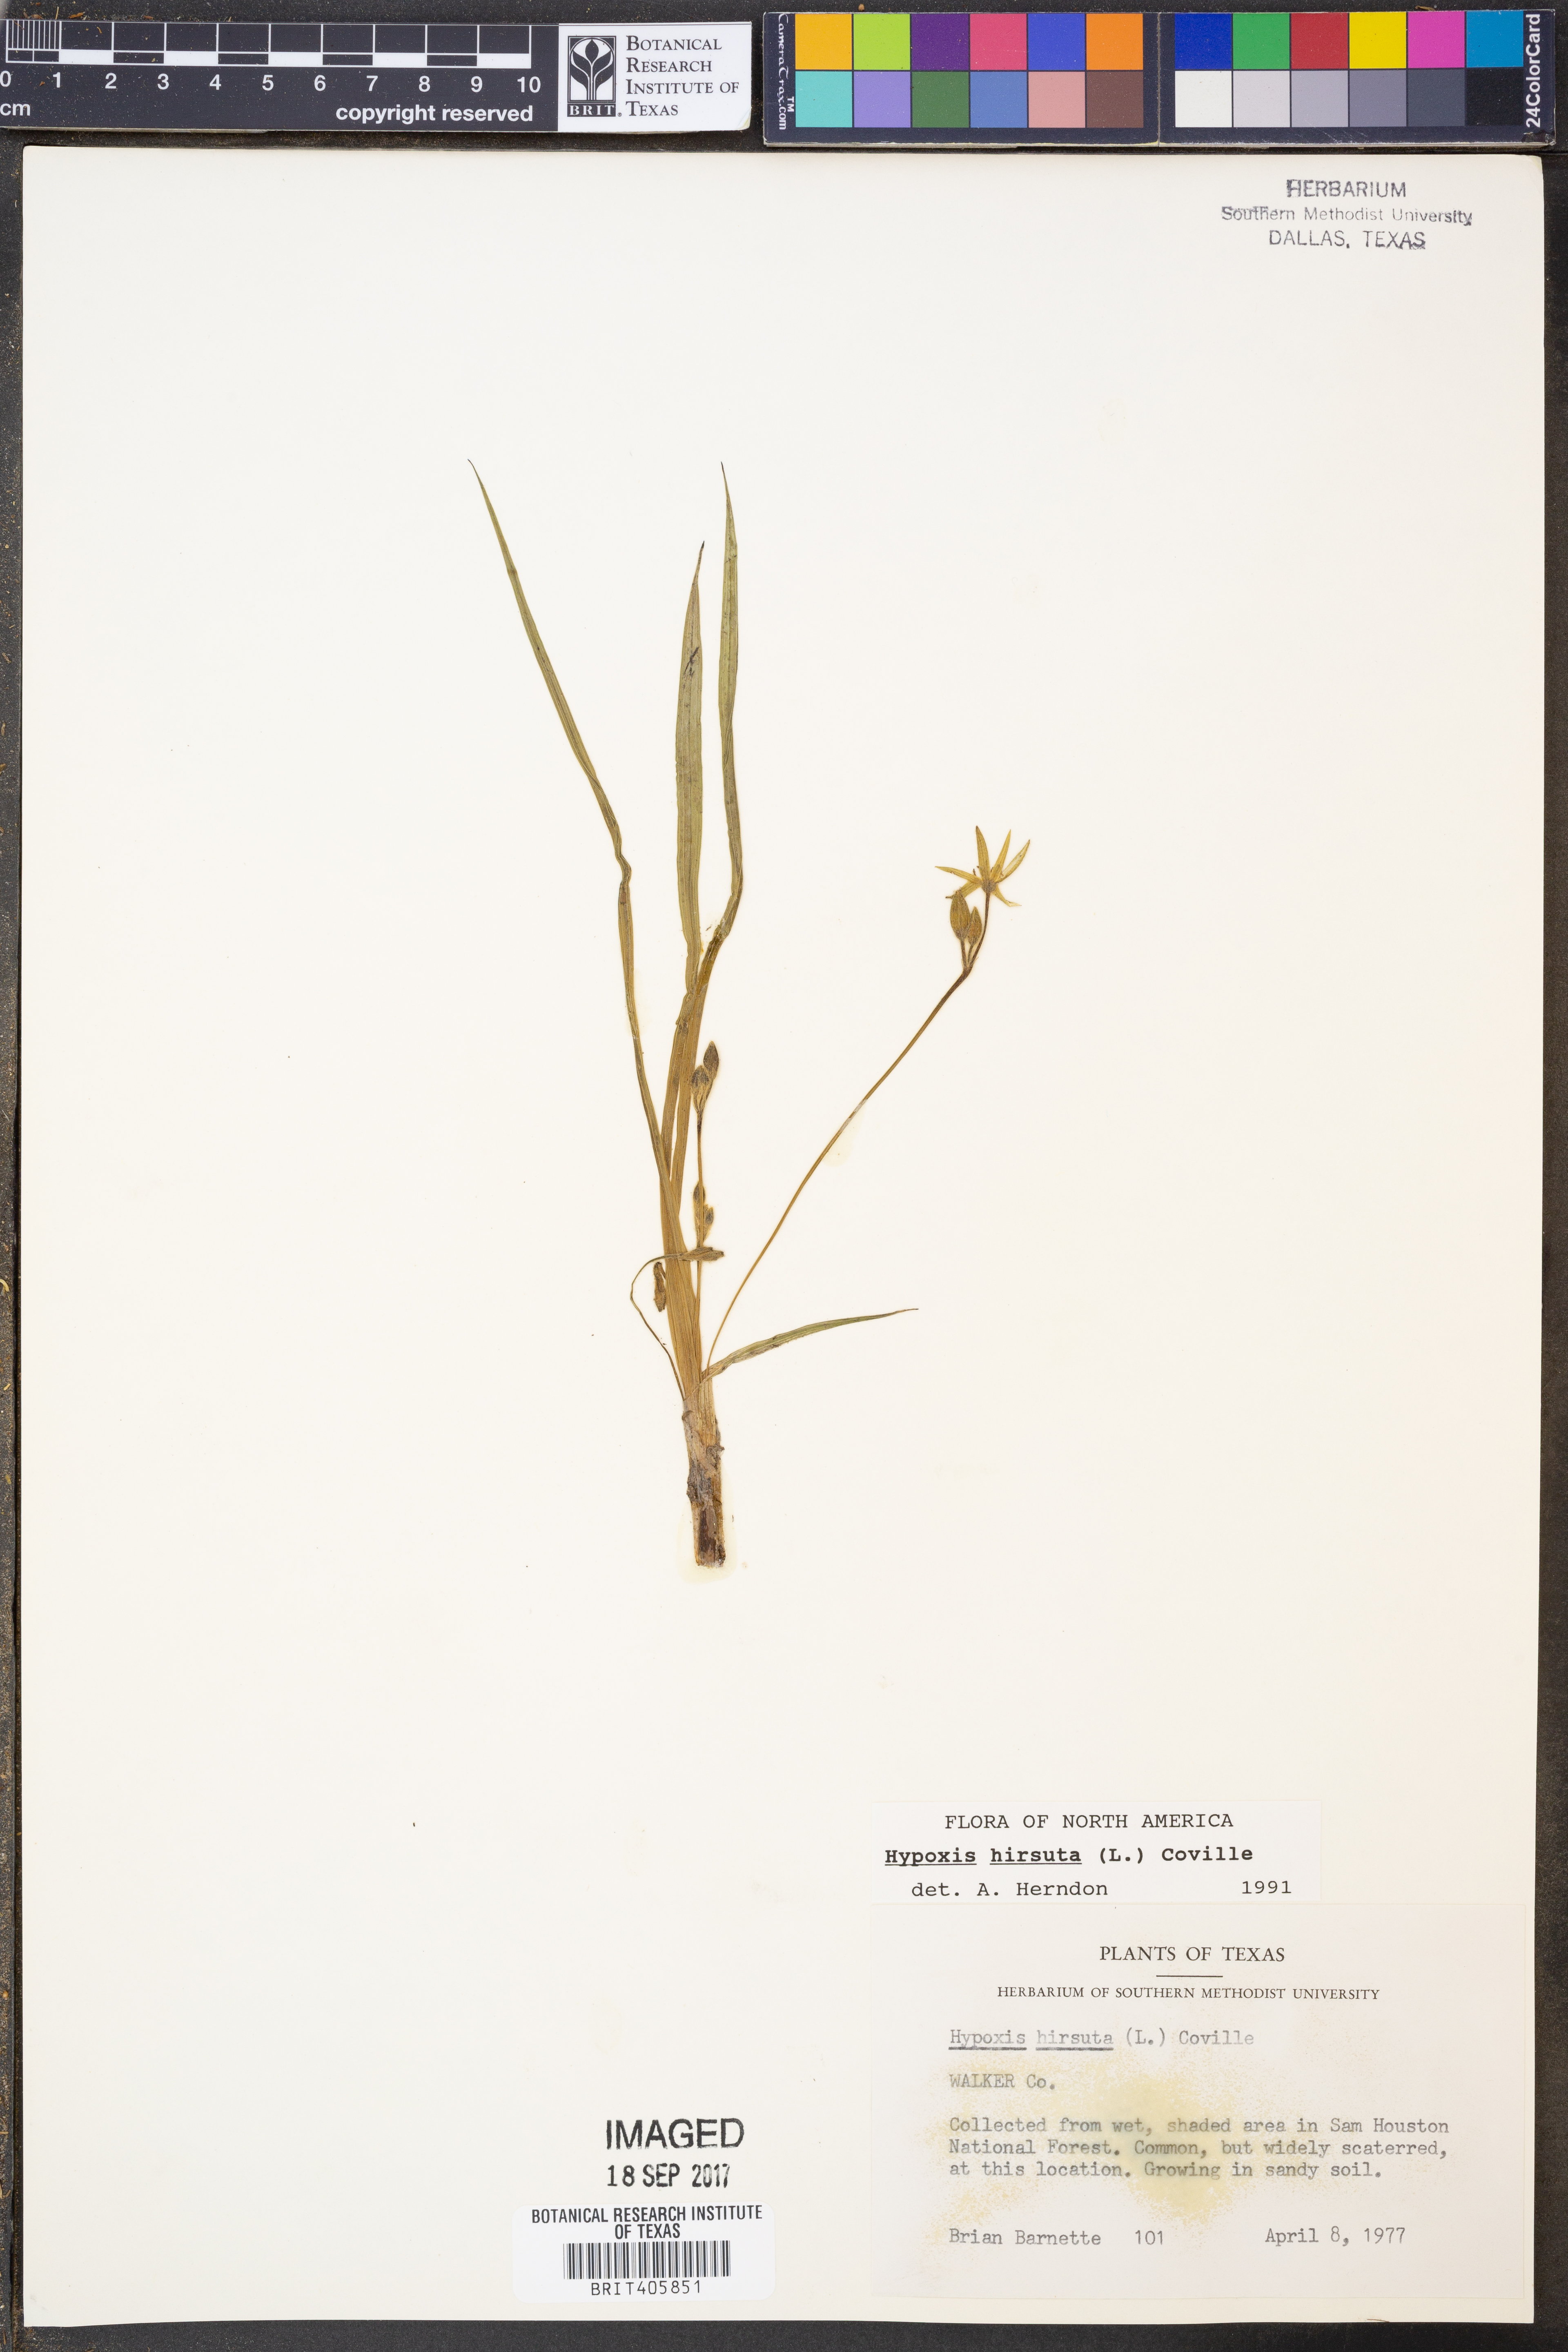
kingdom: Plantae
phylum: Tracheophyta
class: Liliopsida
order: Asparagales
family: Hypoxidaceae
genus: Hypoxis
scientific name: Hypoxis hirsuta
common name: Common goldstar
